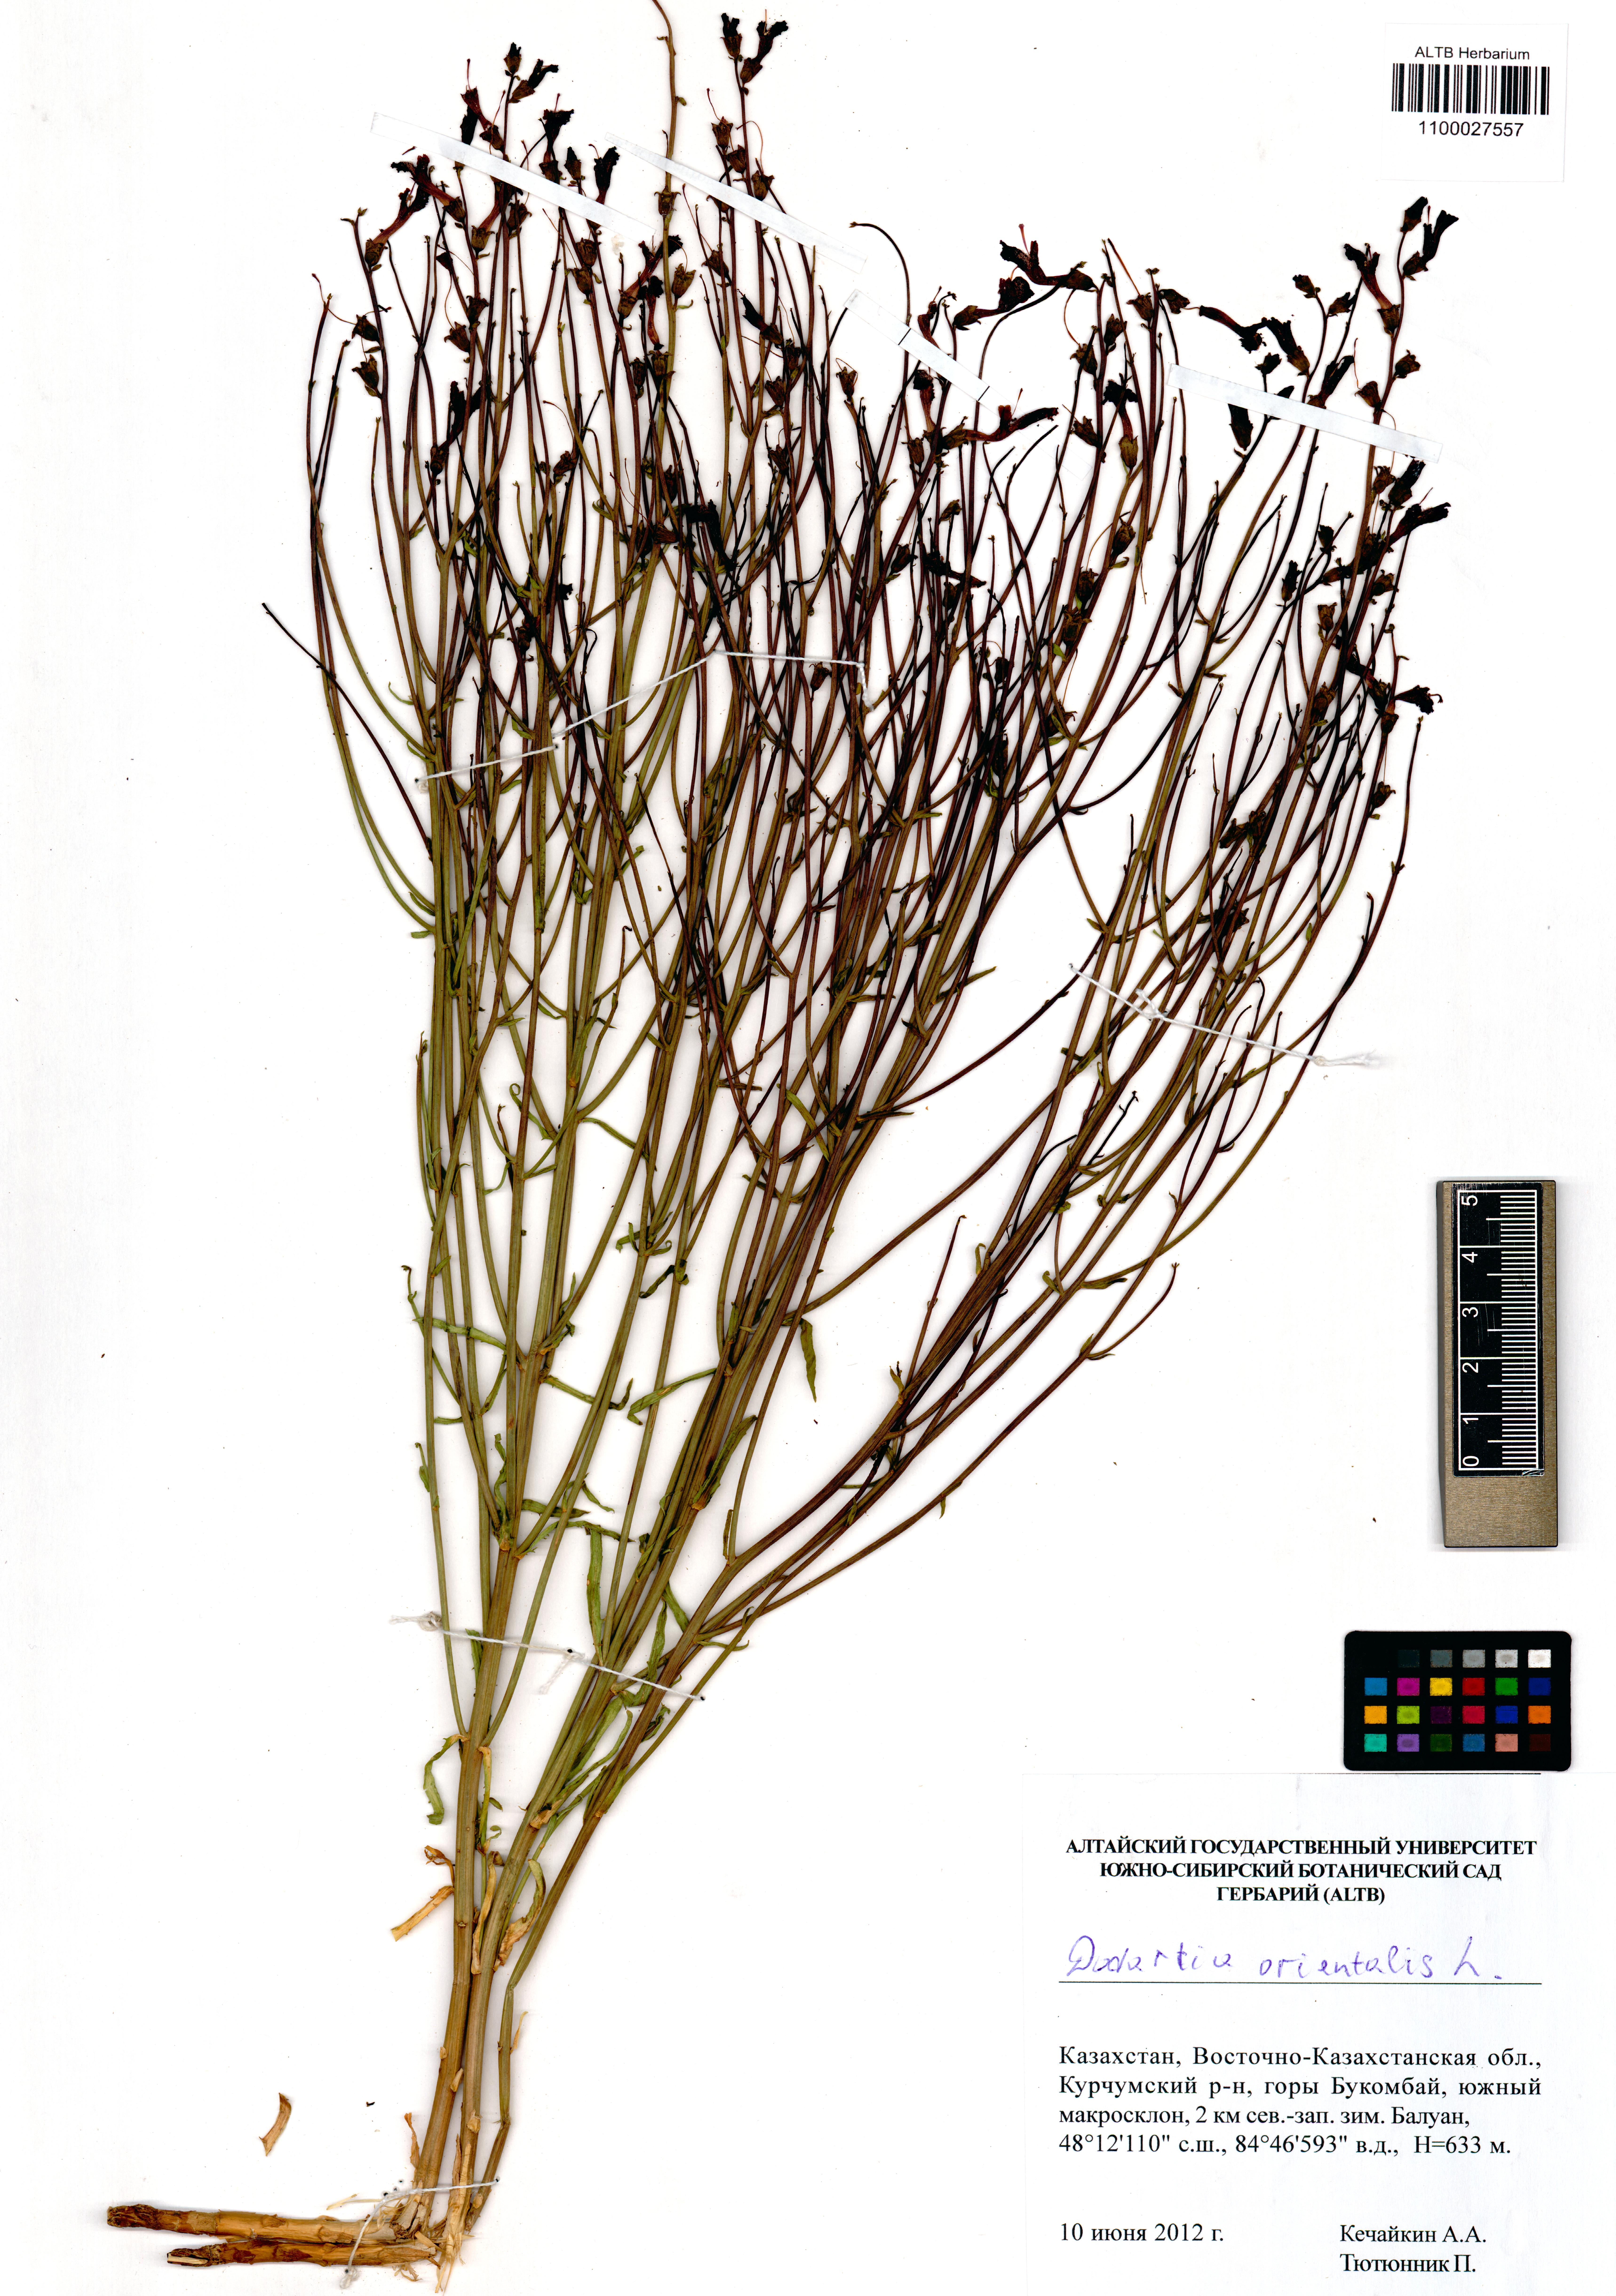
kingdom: Plantae
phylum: Tracheophyta
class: Magnoliopsida
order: Lamiales
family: Mazaceae
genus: Dodartia
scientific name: Dodartia orientalis
